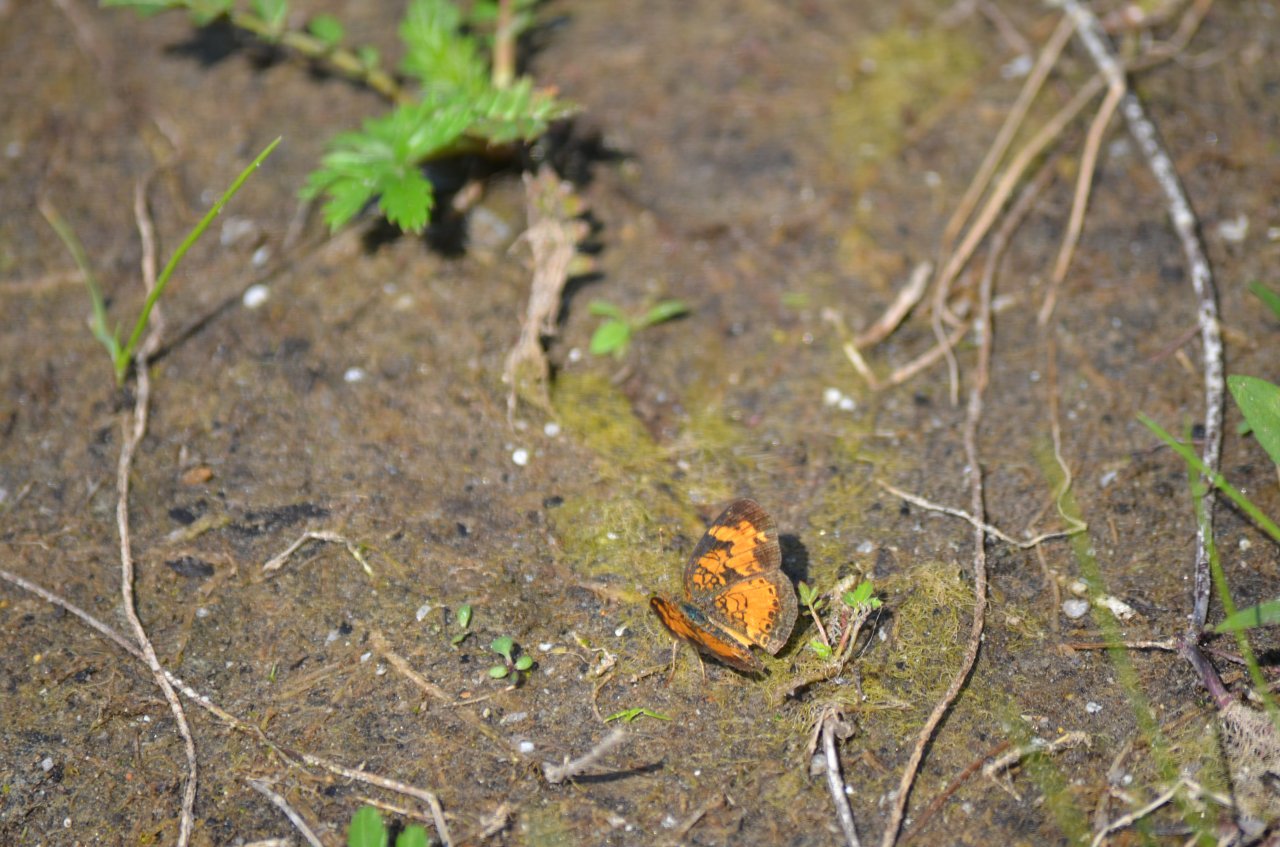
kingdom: Animalia
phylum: Arthropoda
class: Insecta
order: Lepidoptera
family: Nymphalidae
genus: Phyciodes
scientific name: Phyciodes tharos
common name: Northern Crescent
